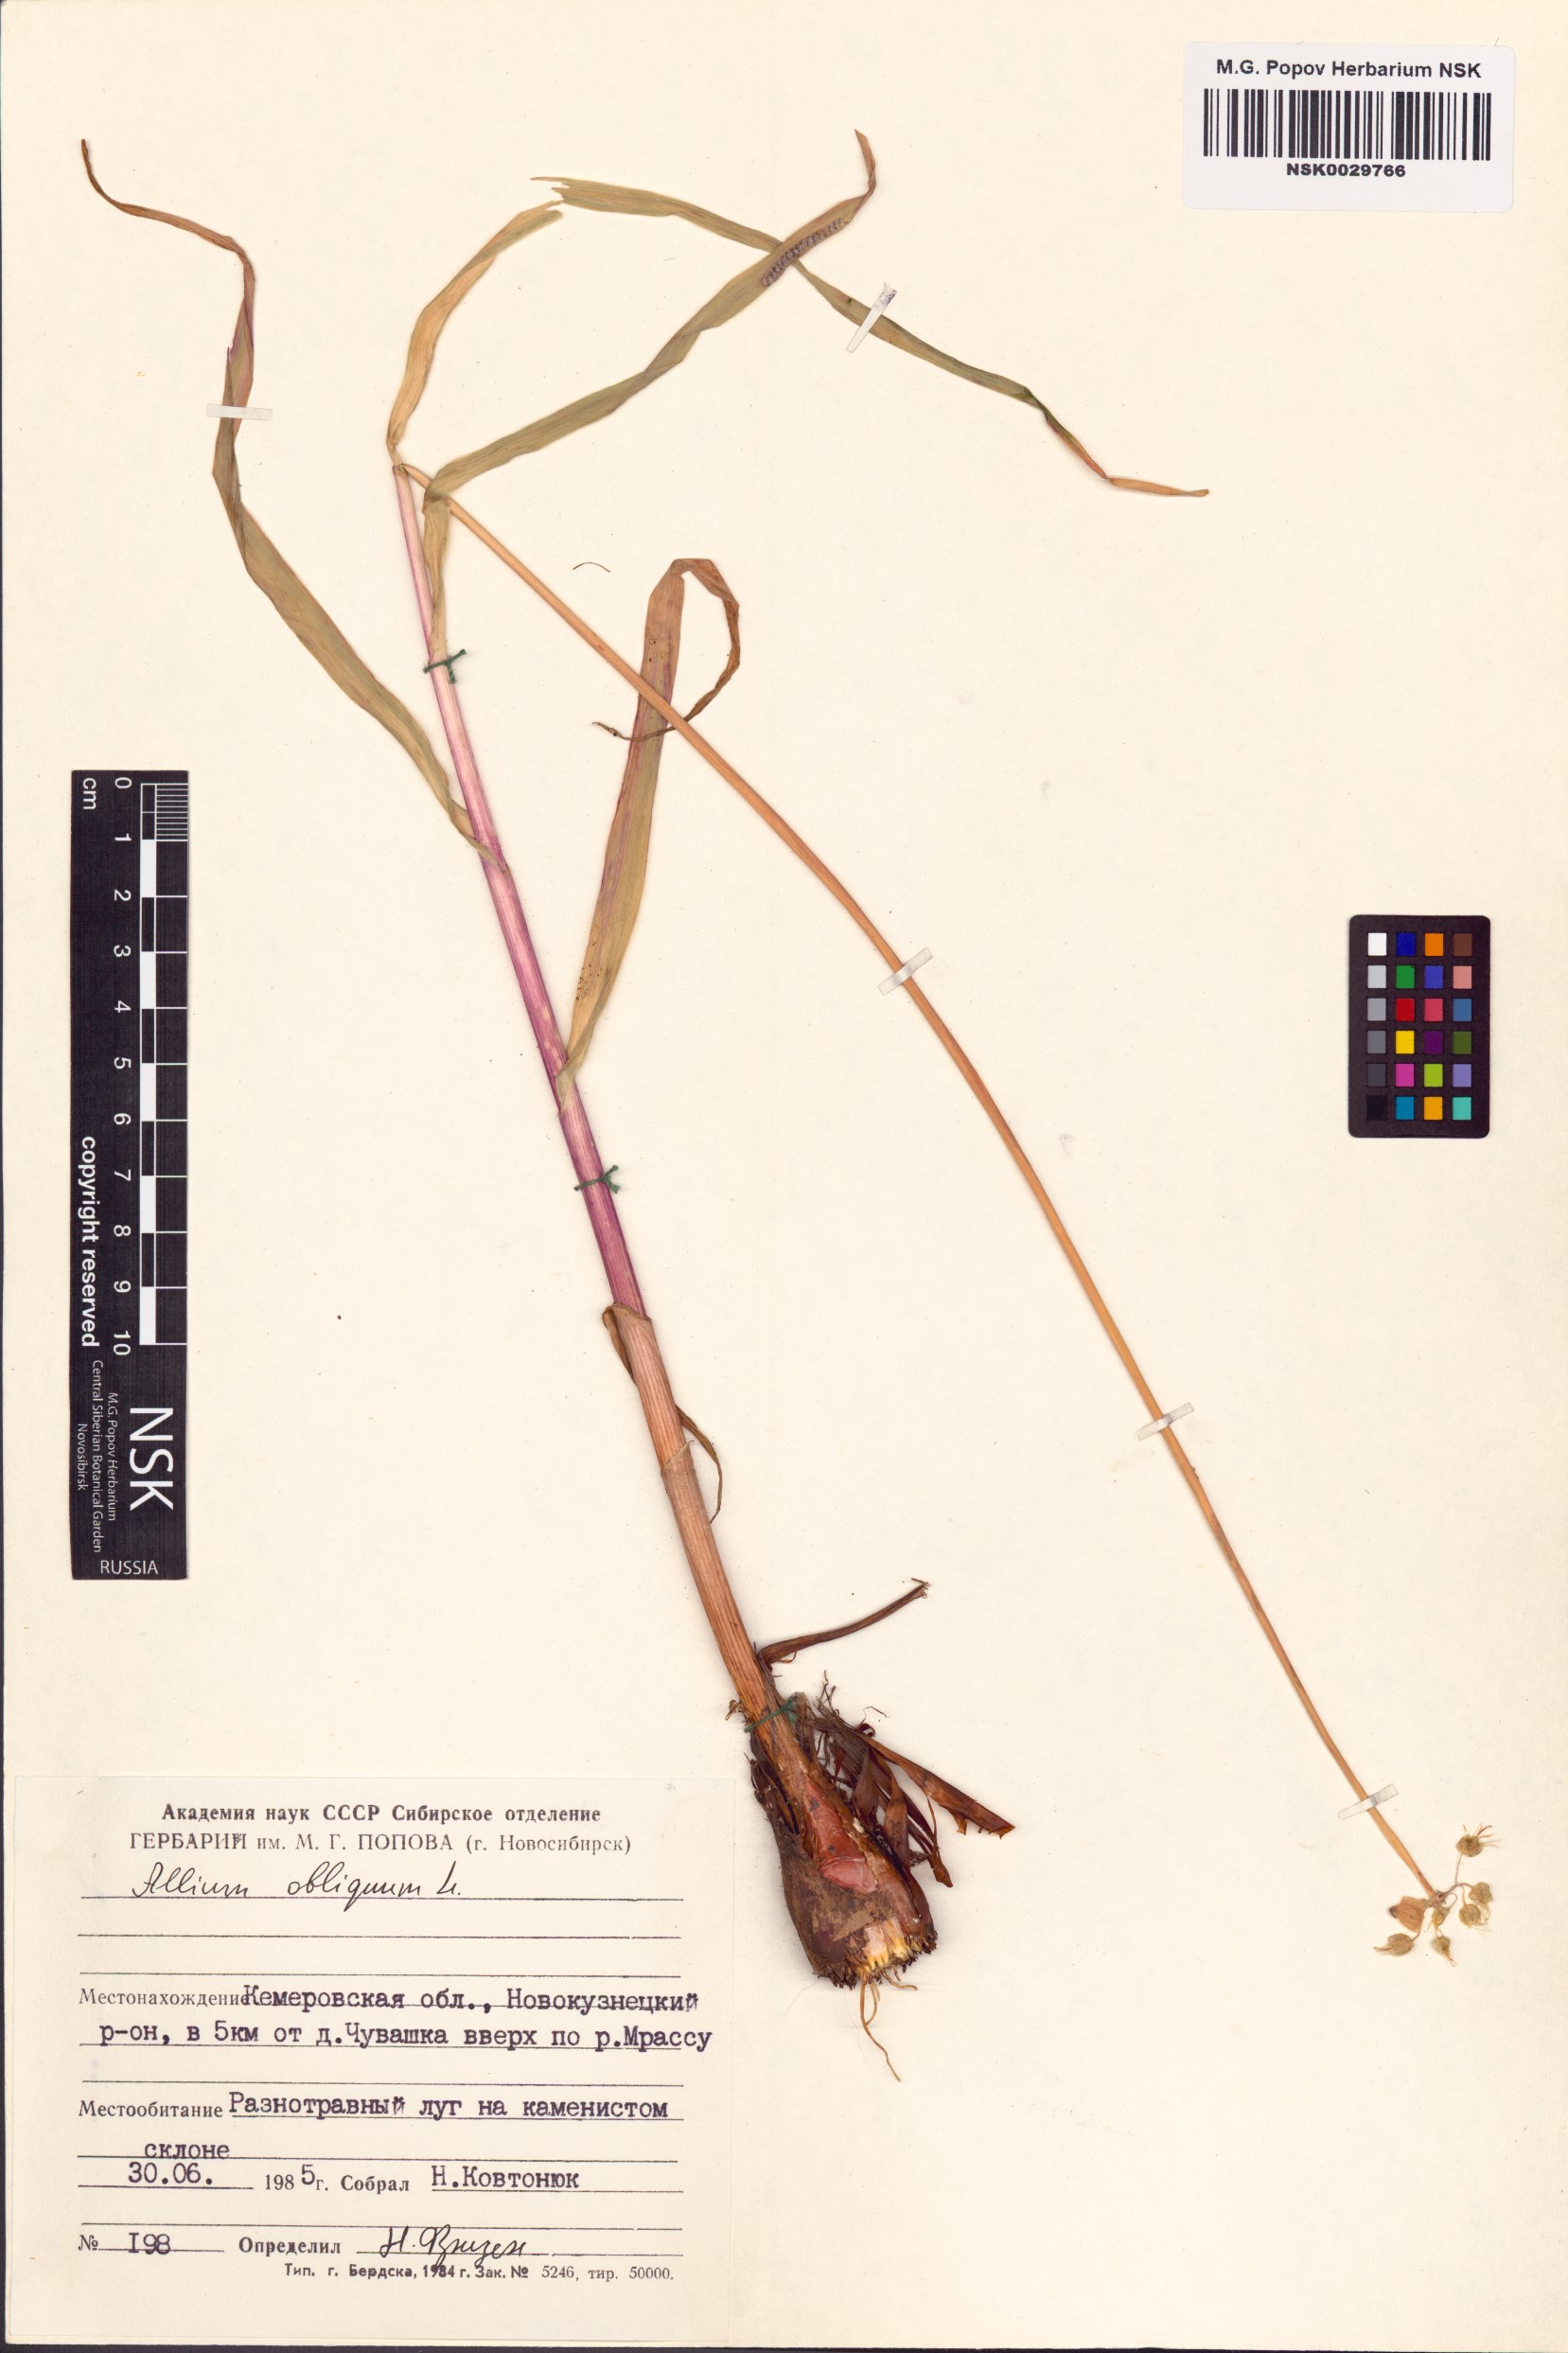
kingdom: Plantae
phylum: Tracheophyta
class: Liliopsida
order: Asparagales
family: Amaryllidaceae
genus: Allium
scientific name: Allium obliquum
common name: Oblique onion
